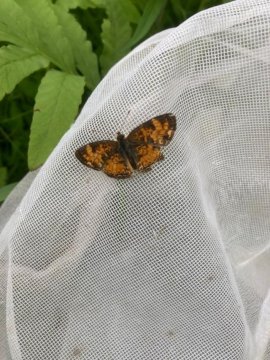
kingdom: Animalia
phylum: Arthropoda
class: Insecta
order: Lepidoptera
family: Nymphalidae
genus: Phyciodes
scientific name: Phyciodes
